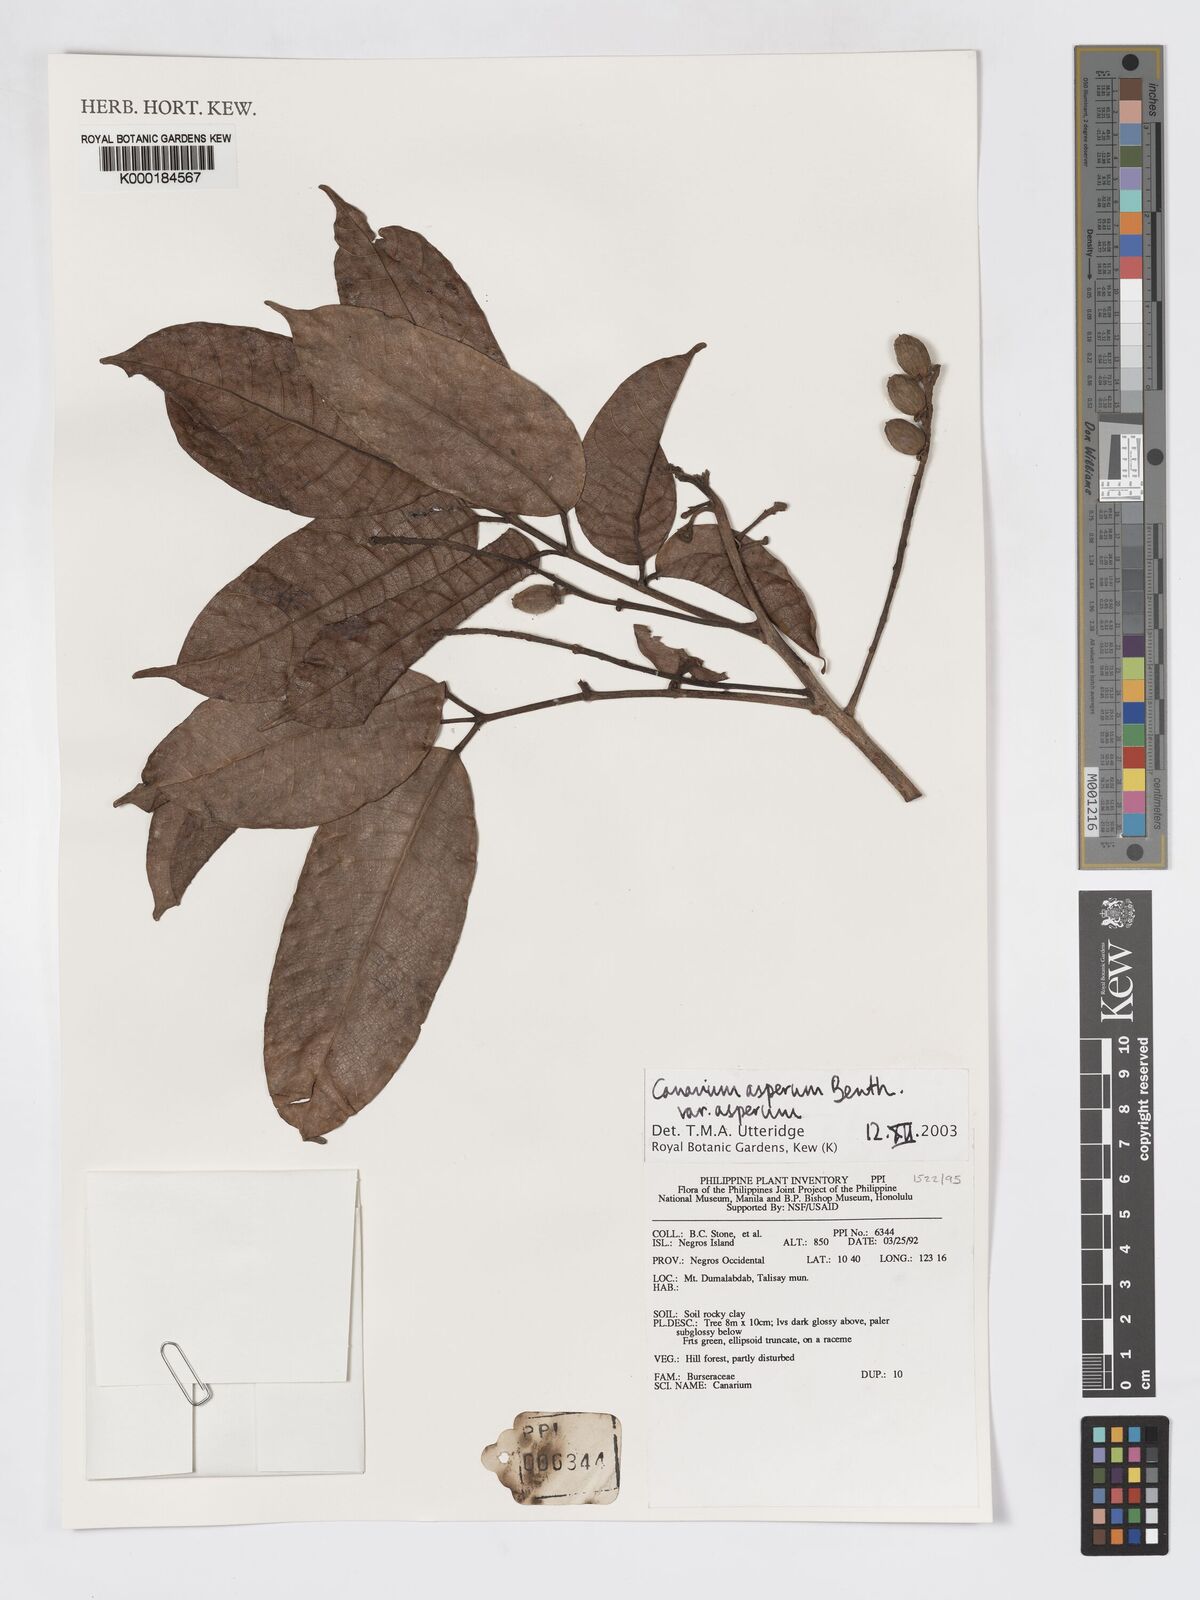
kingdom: Plantae
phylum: Tracheophyta
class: Magnoliopsida
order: Sapindales
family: Burseraceae
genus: Canarium
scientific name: Canarium asperum
